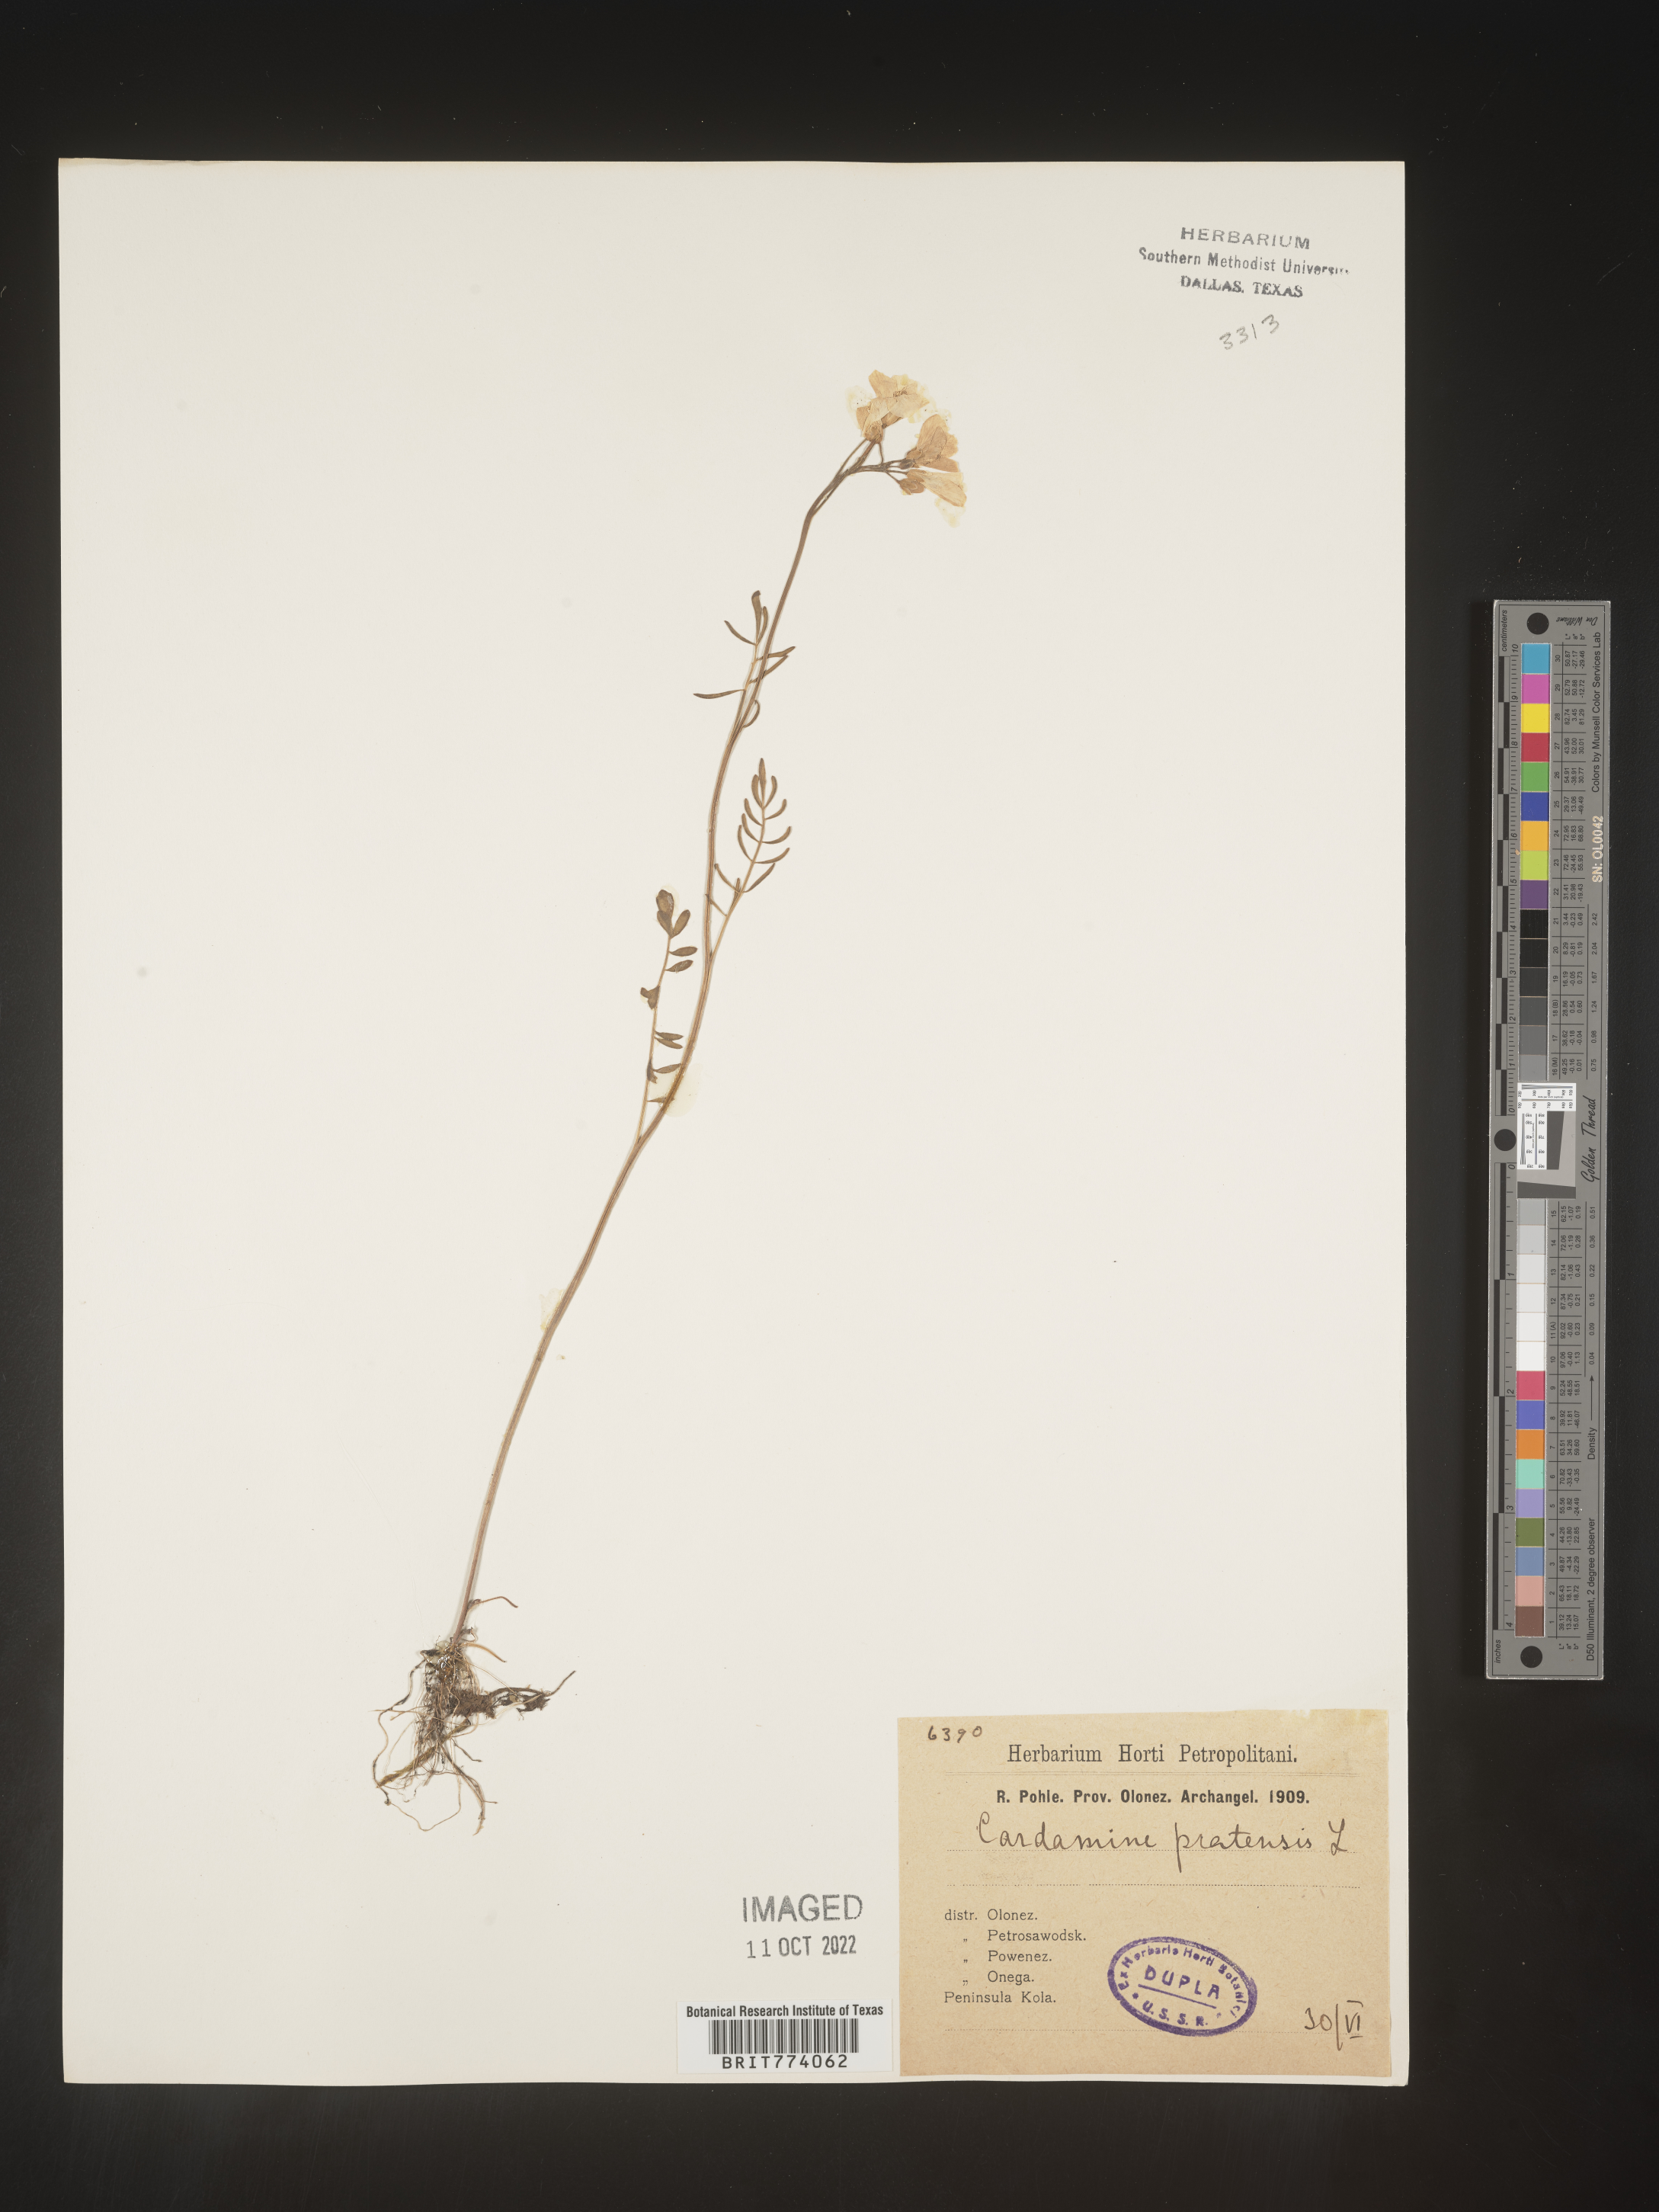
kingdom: Plantae
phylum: Tracheophyta
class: Magnoliopsida
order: Brassicales
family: Brassicaceae
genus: Cardamine
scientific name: Cardamine pratensis
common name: Cuckoo flower
